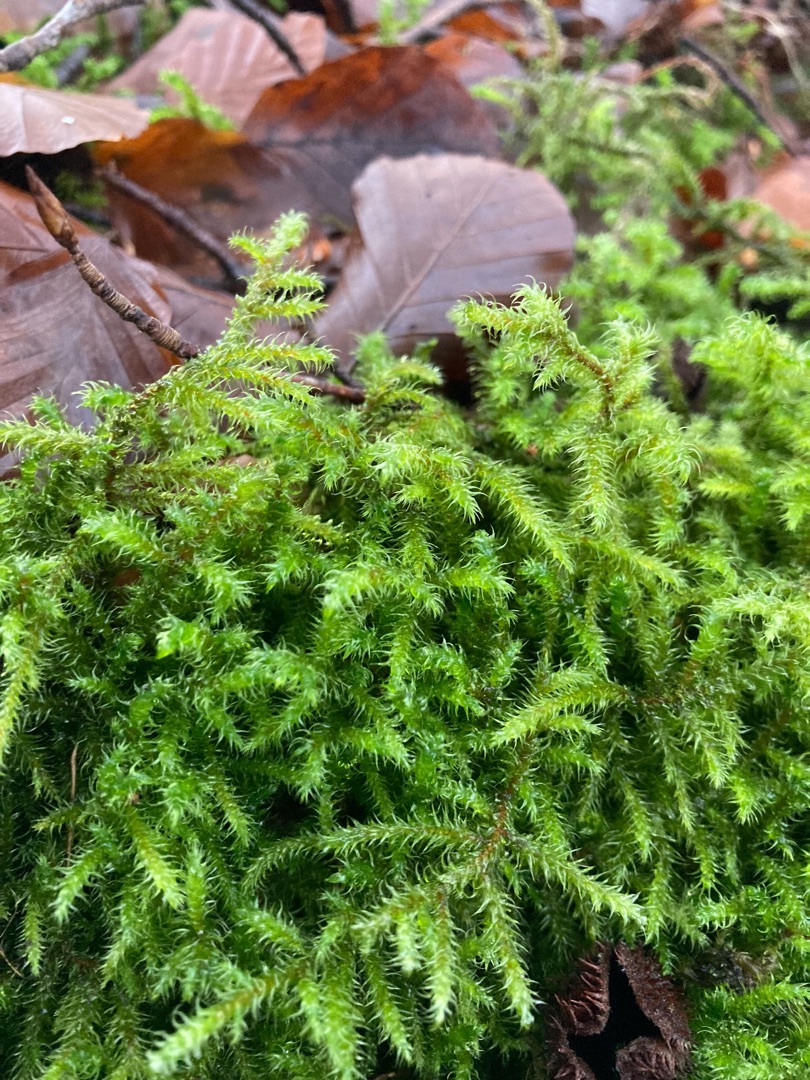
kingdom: Plantae
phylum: Bryophyta
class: Bryopsida
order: Hypnales
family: Hylocomiaceae
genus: Rhytidiadelphus
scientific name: Rhytidiadelphus loreus
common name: Ulvefod-kransemos
